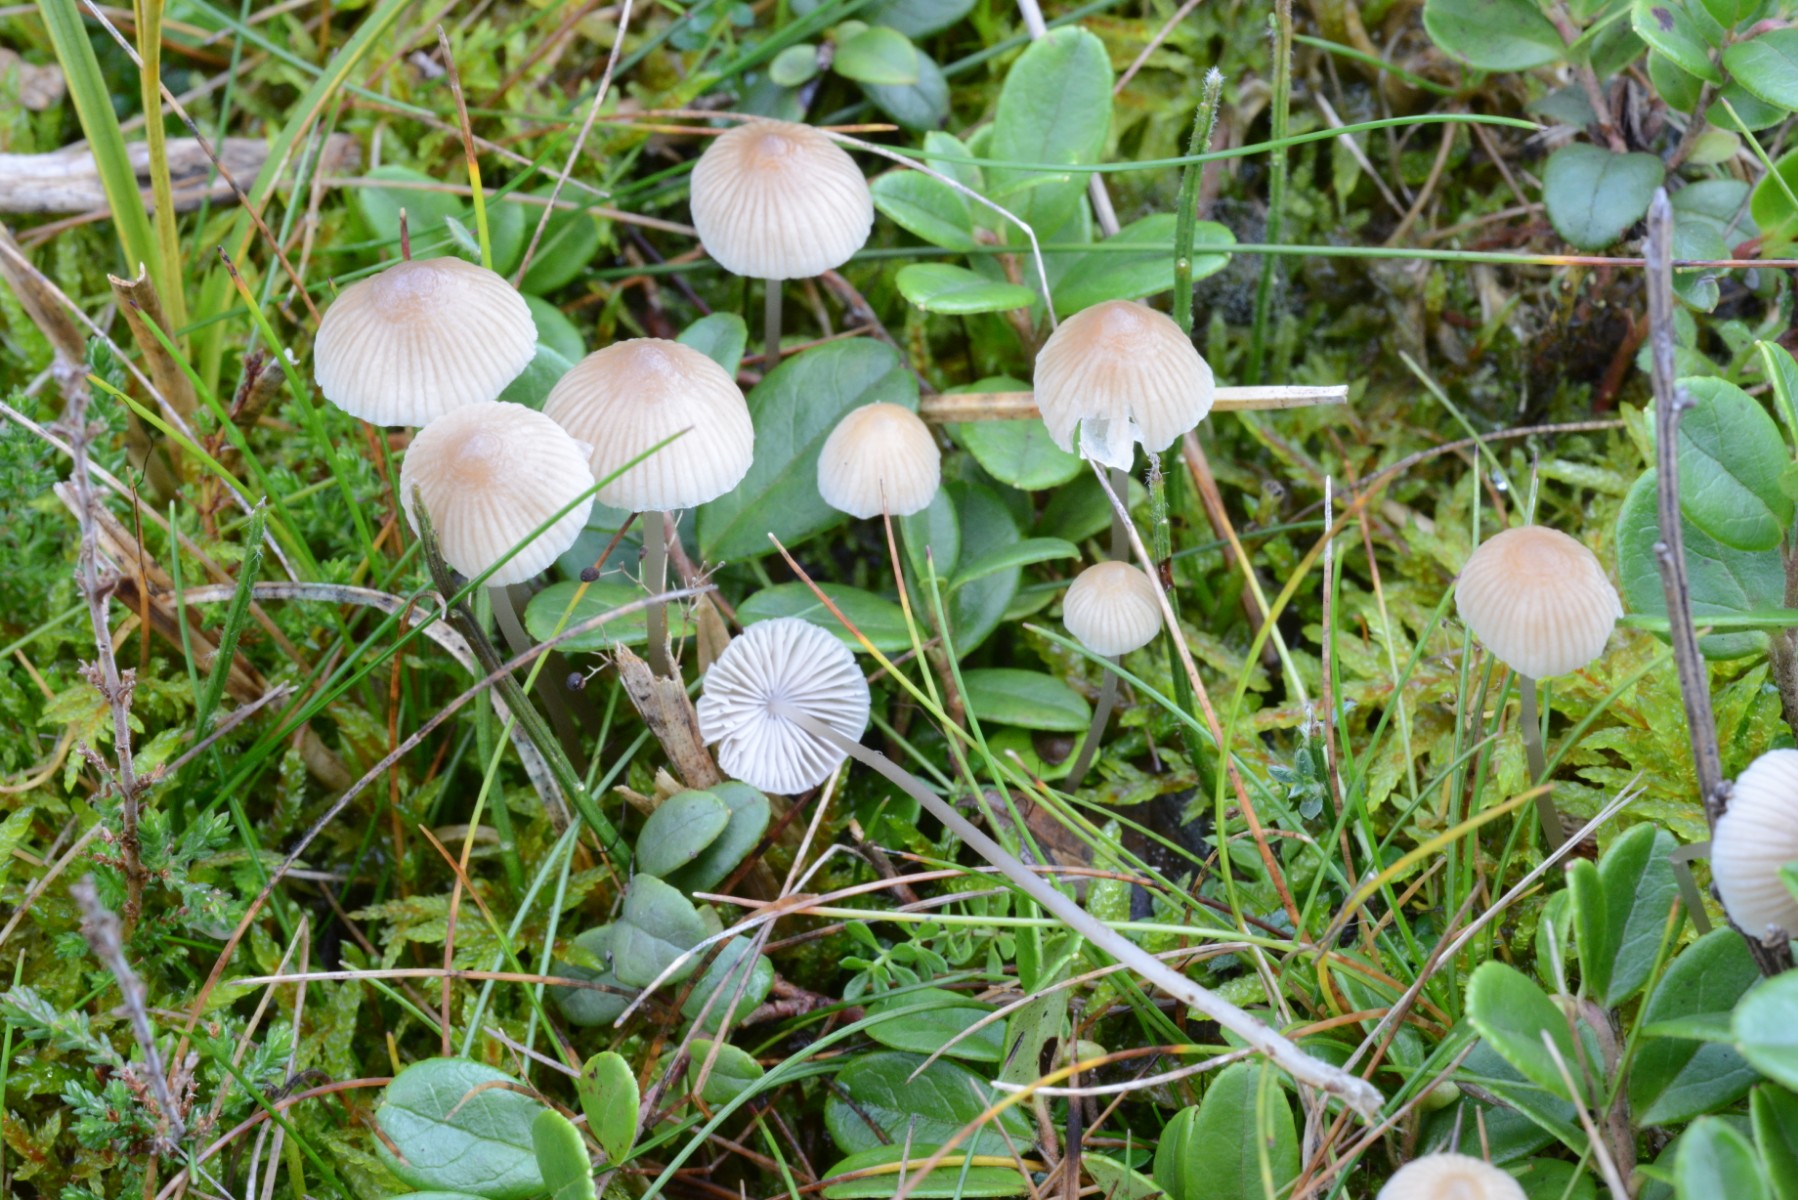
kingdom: Fungi
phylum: Basidiomycota
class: Agaricomycetes
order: Agaricales
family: Mycenaceae
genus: Mycena
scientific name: Mycena metata
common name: rødlig huesvamp
